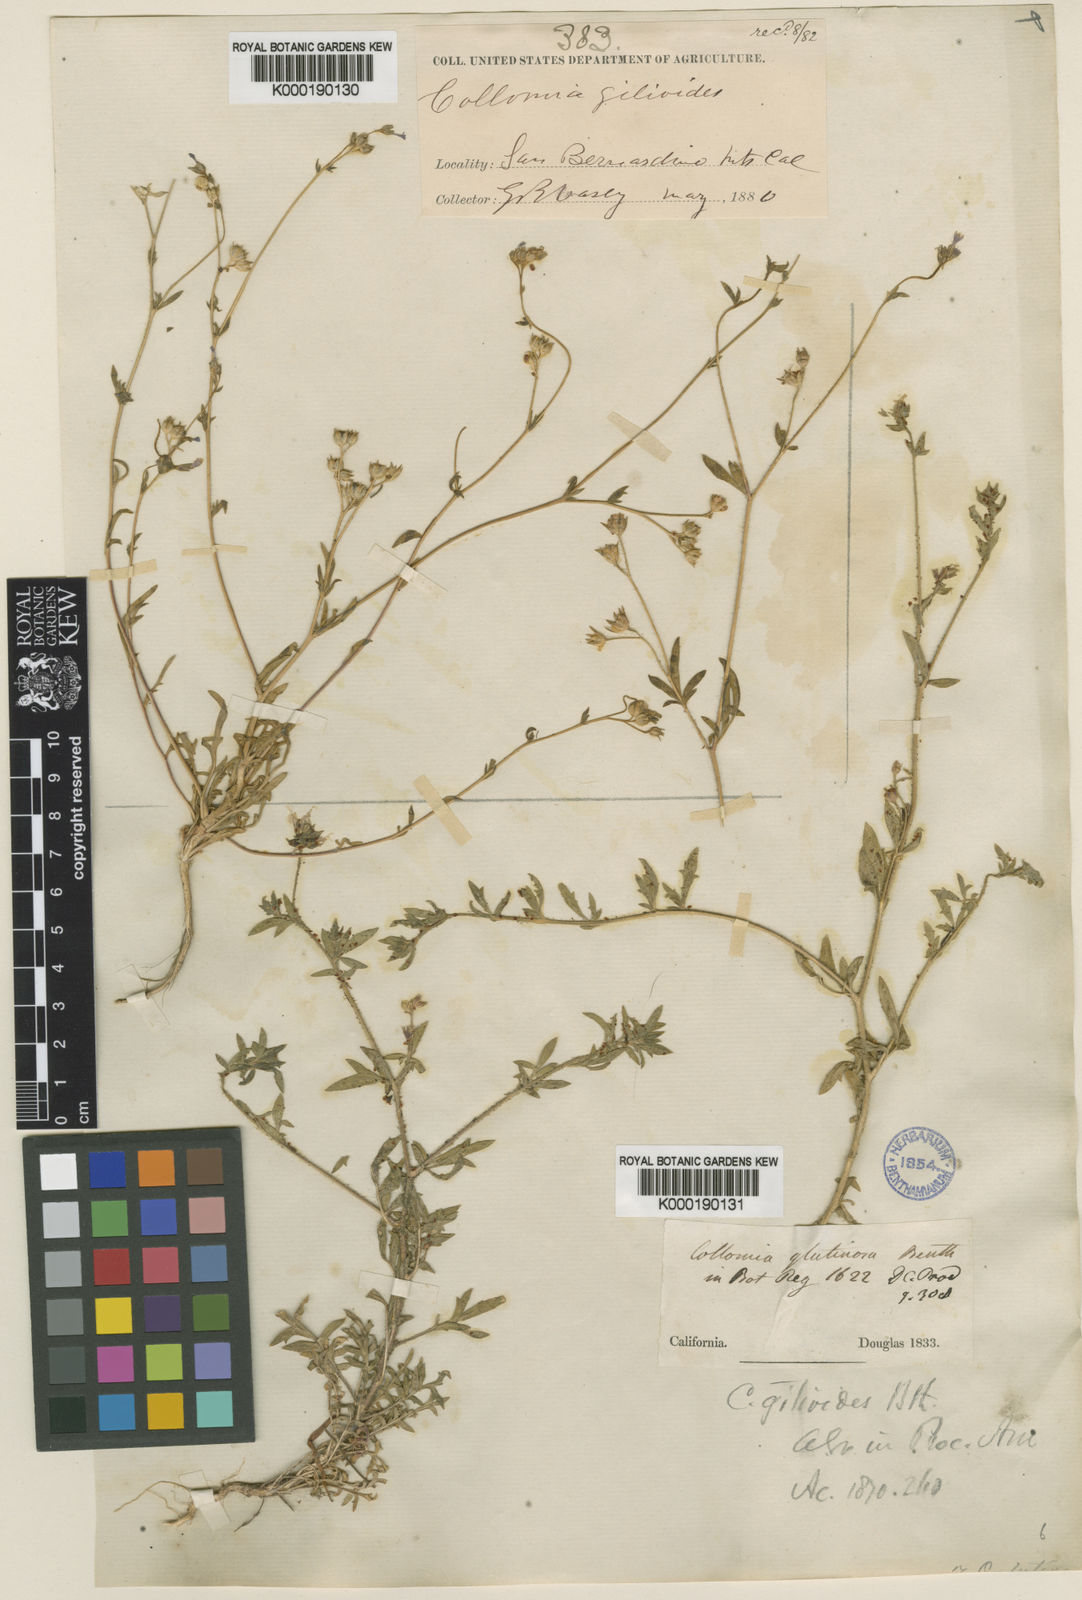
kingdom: Plantae
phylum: Tracheophyta
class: Magnoliopsida
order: Ericales
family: Polemoniaceae
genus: Dayia
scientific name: Dayia glutinosa
